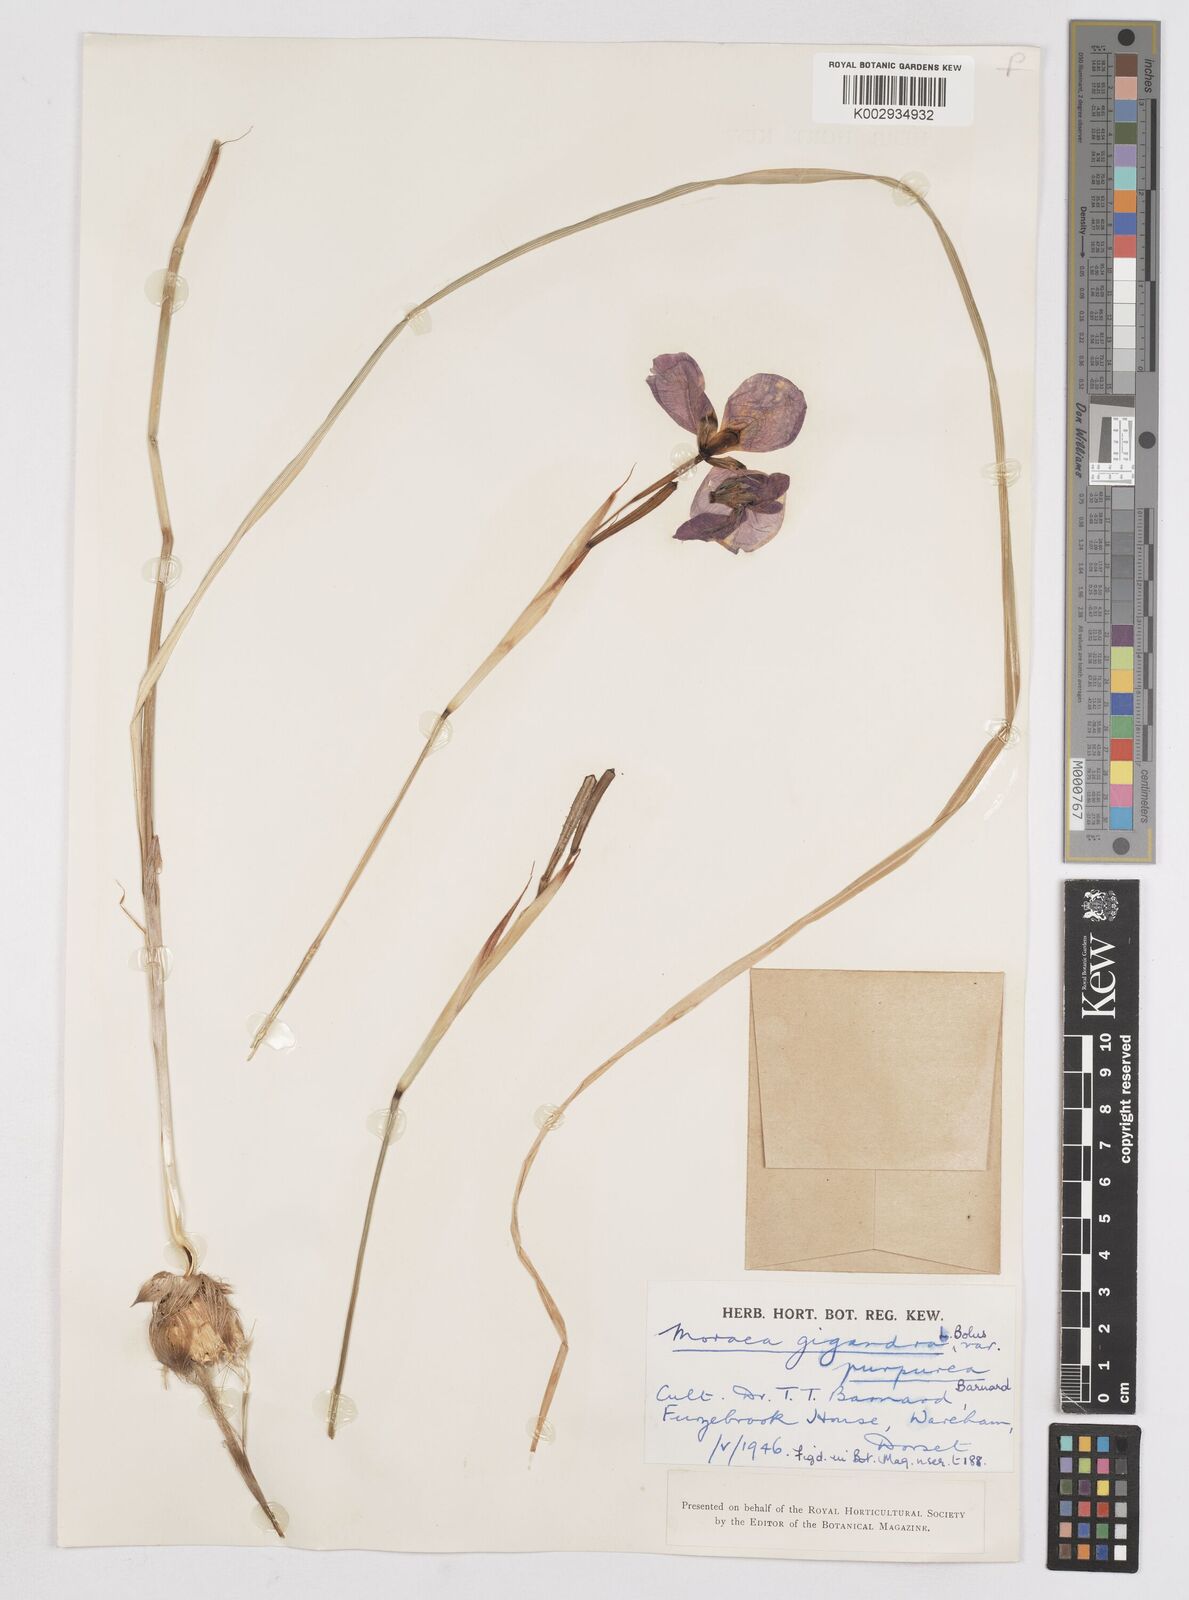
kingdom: Plantae
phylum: Tracheophyta
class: Liliopsida
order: Asparagales
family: Iridaceae
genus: Moraea
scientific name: Moraea gigandra
